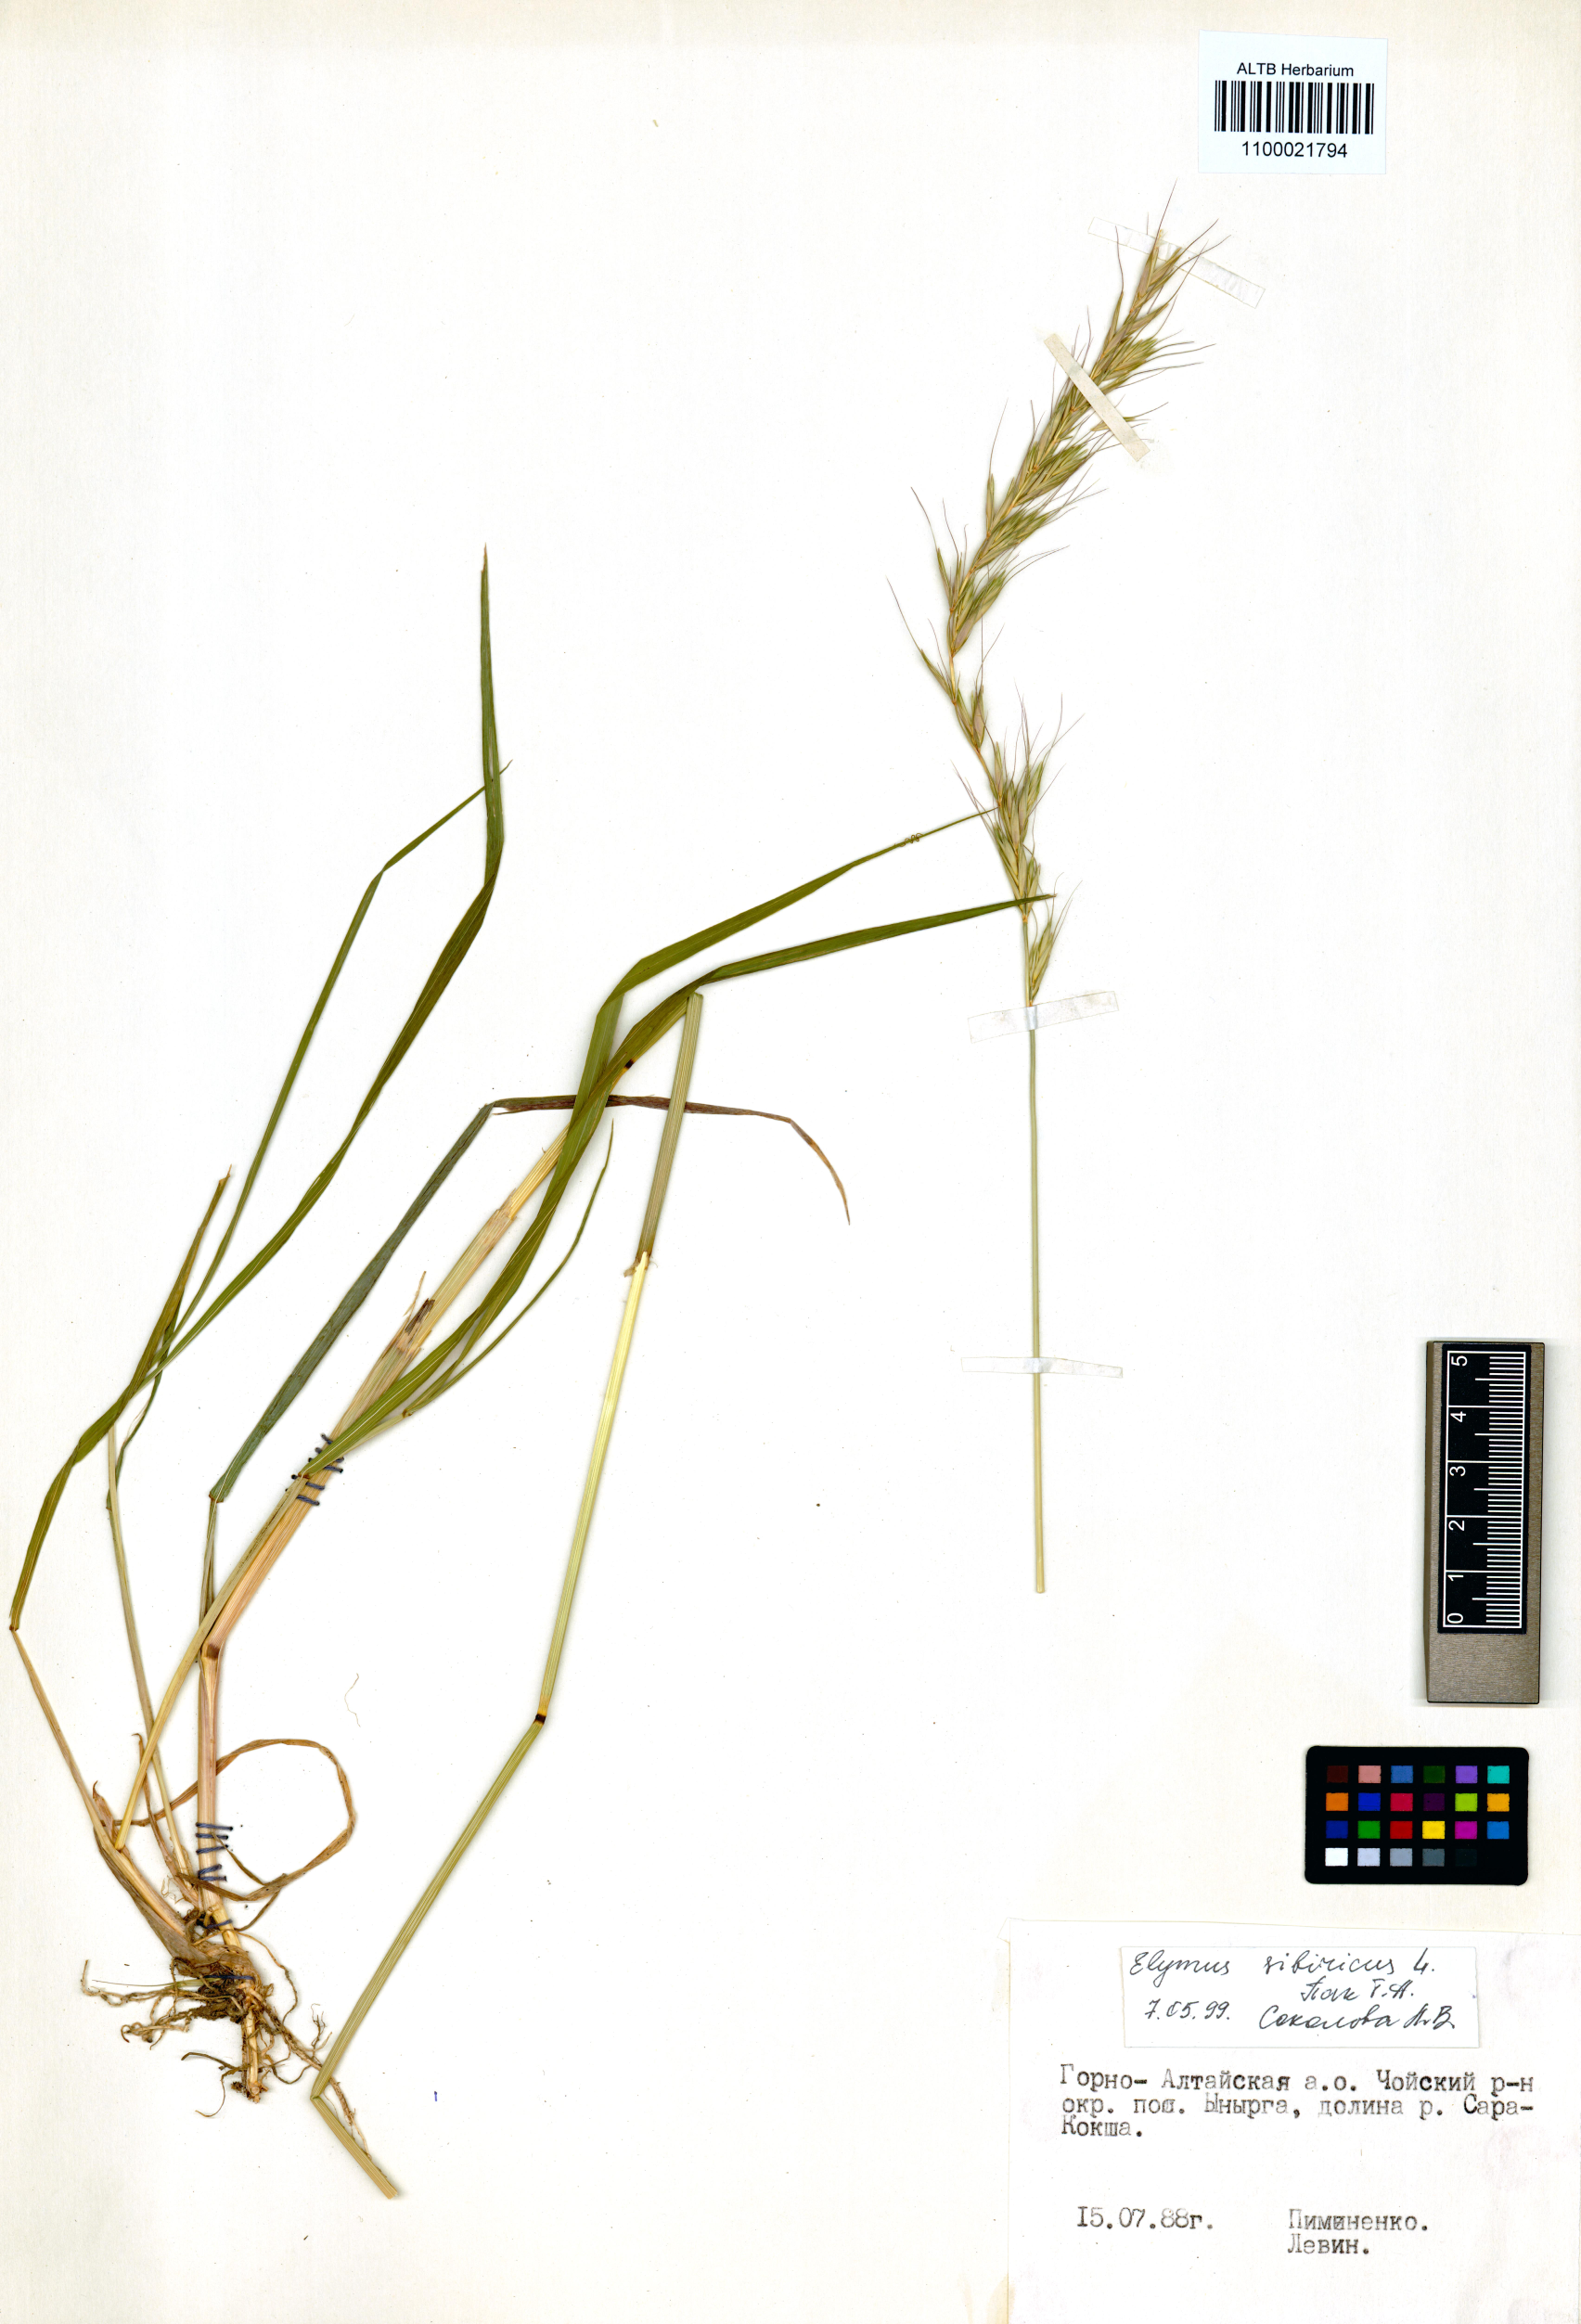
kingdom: Plantae
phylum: Tracheophyta
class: Liliopsida
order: Poales
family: Poaceae
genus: Elymus
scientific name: Elymus sibiricus
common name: Siberian wildrye
